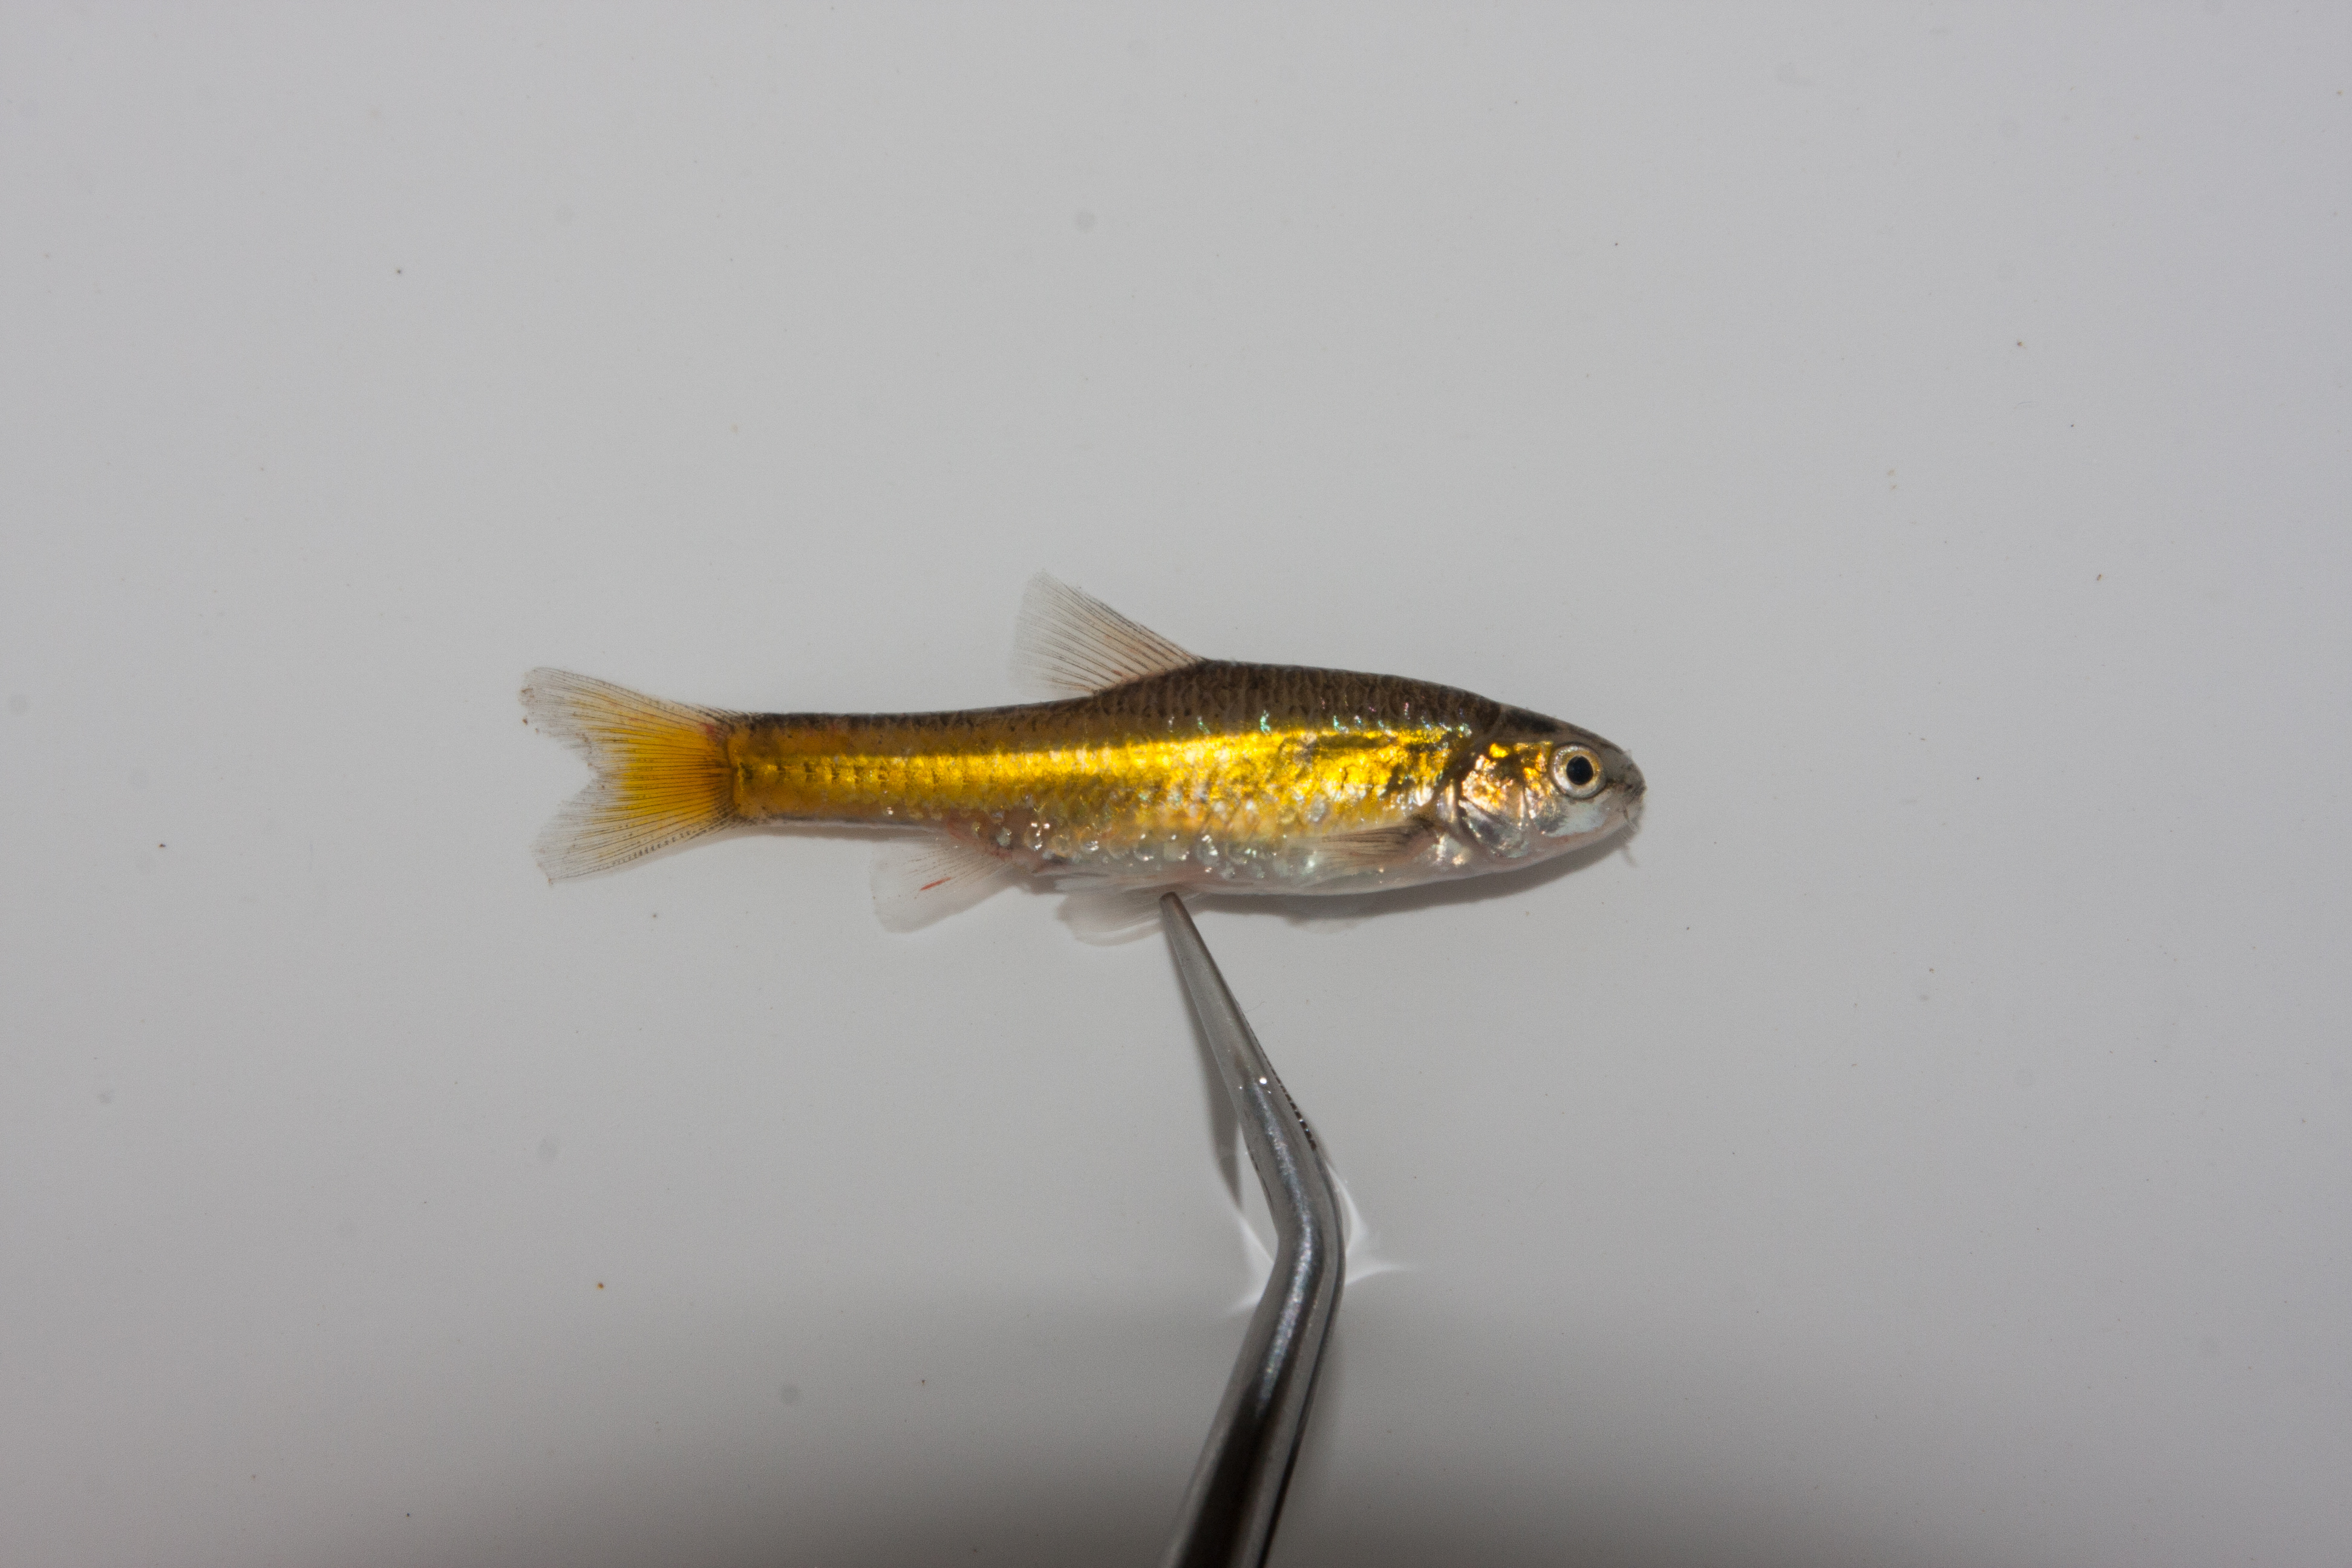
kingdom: Animalia
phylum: Chordata
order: Cypriniformes
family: Cyprinidae
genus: Enteromius
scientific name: Enteromius pallidus
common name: Goldie barb
